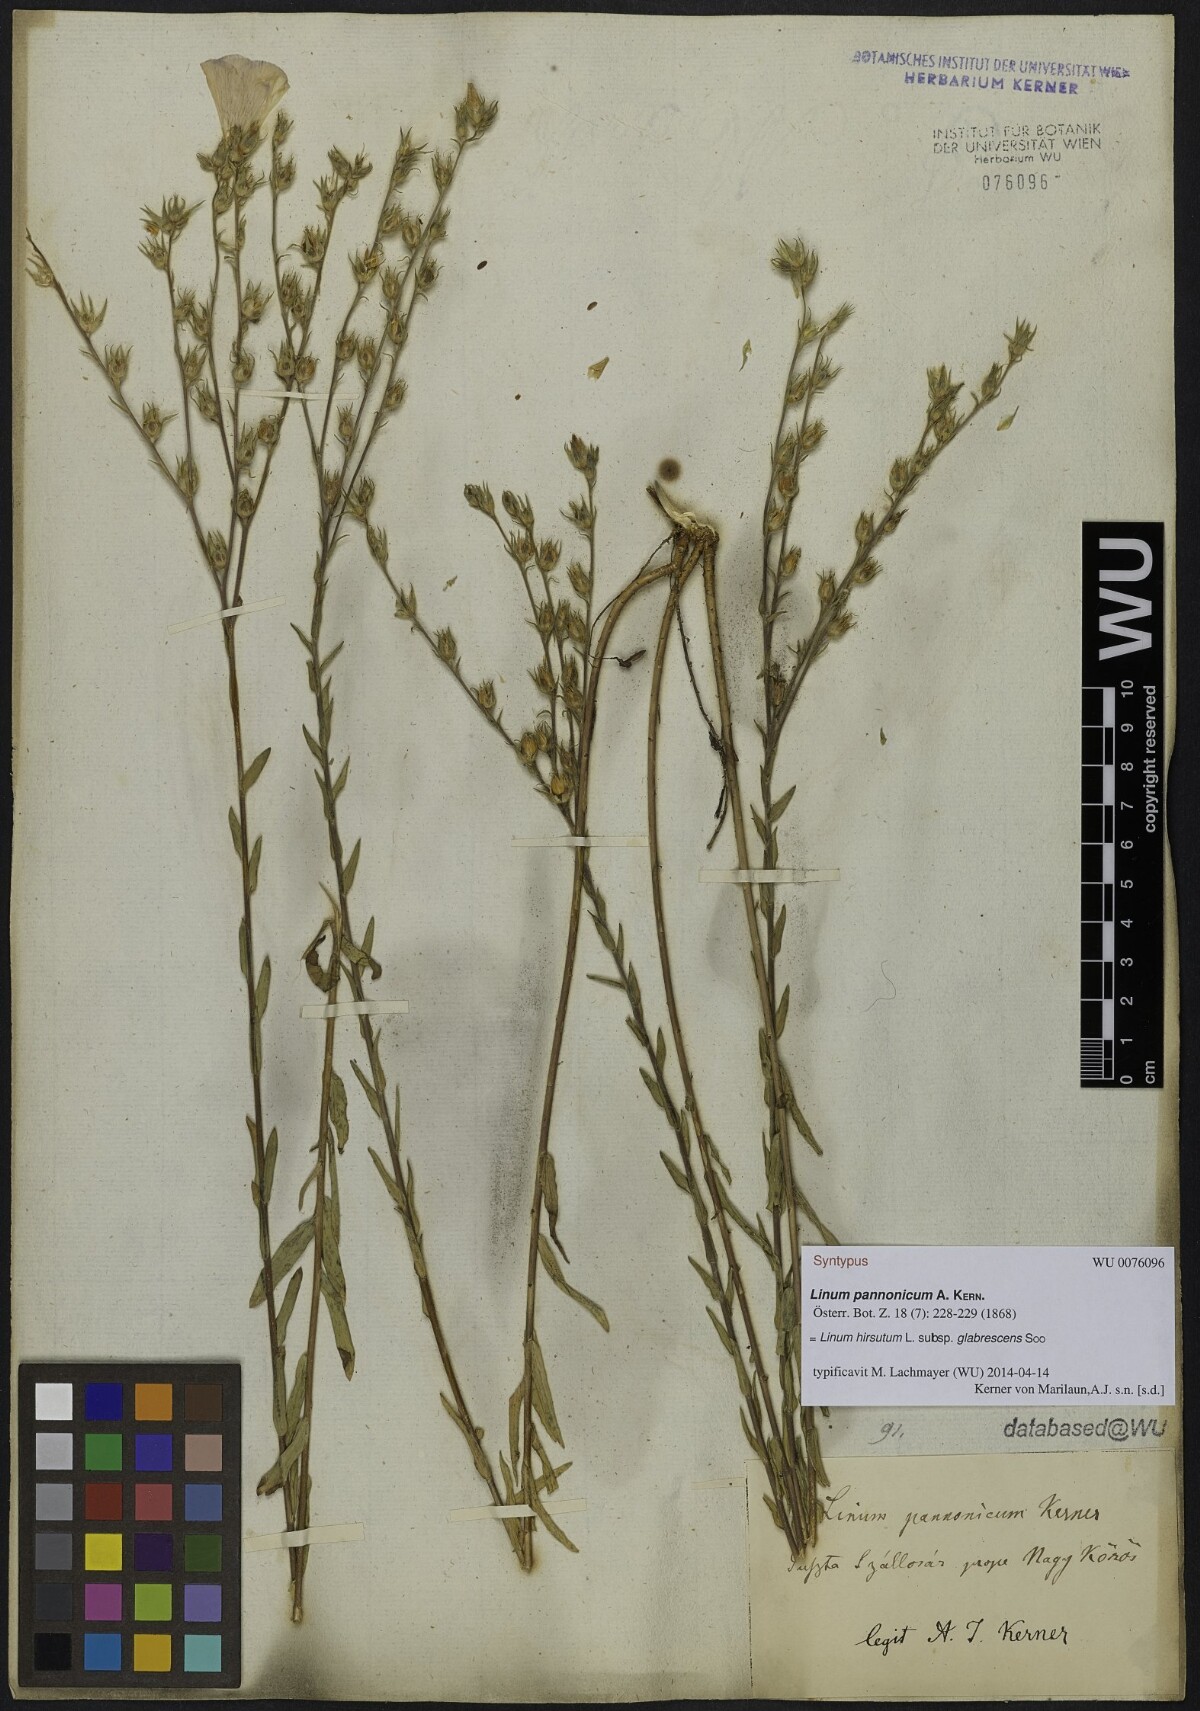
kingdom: Plantae
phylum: Tracheophyta
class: Magnoliopsida
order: Malpighiales
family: Linaceae
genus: Linum
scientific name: Linum hirsutum
